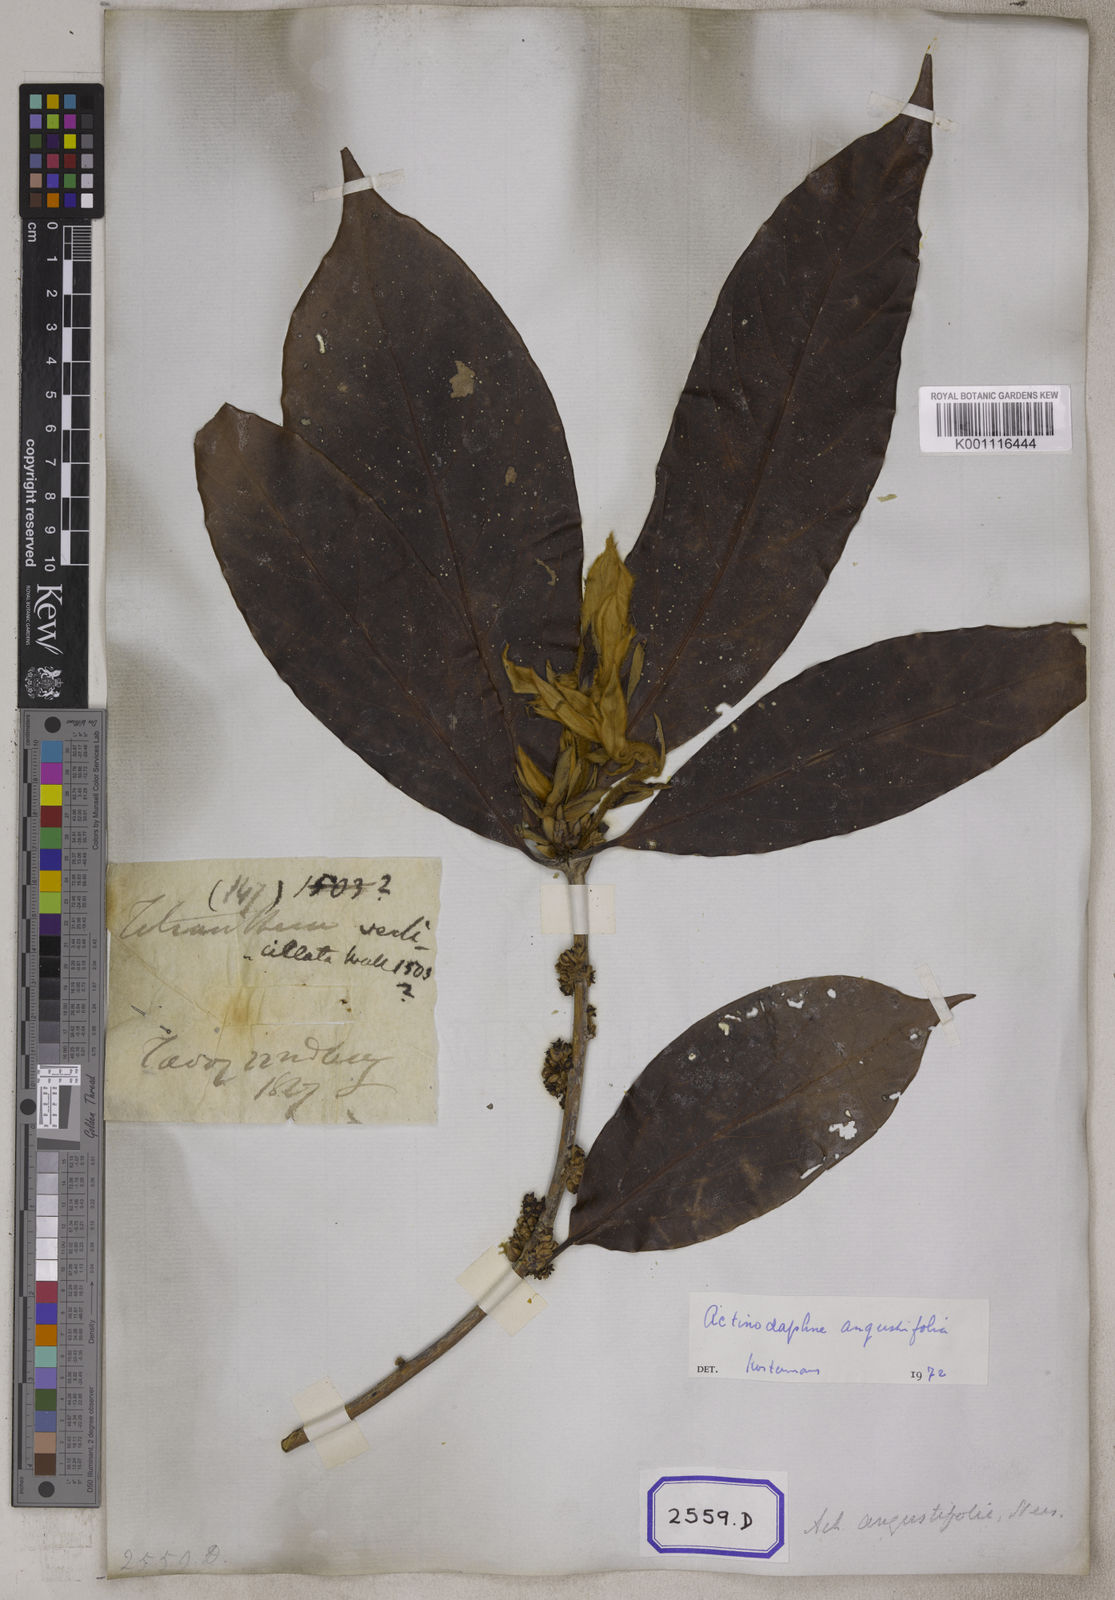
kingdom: Plantae
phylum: Tracheophyta
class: Magnoliopsida
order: Laurales
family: Lauraceae
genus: Actinodaphne
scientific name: Actinodaphne angustifolia
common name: Pisatree
